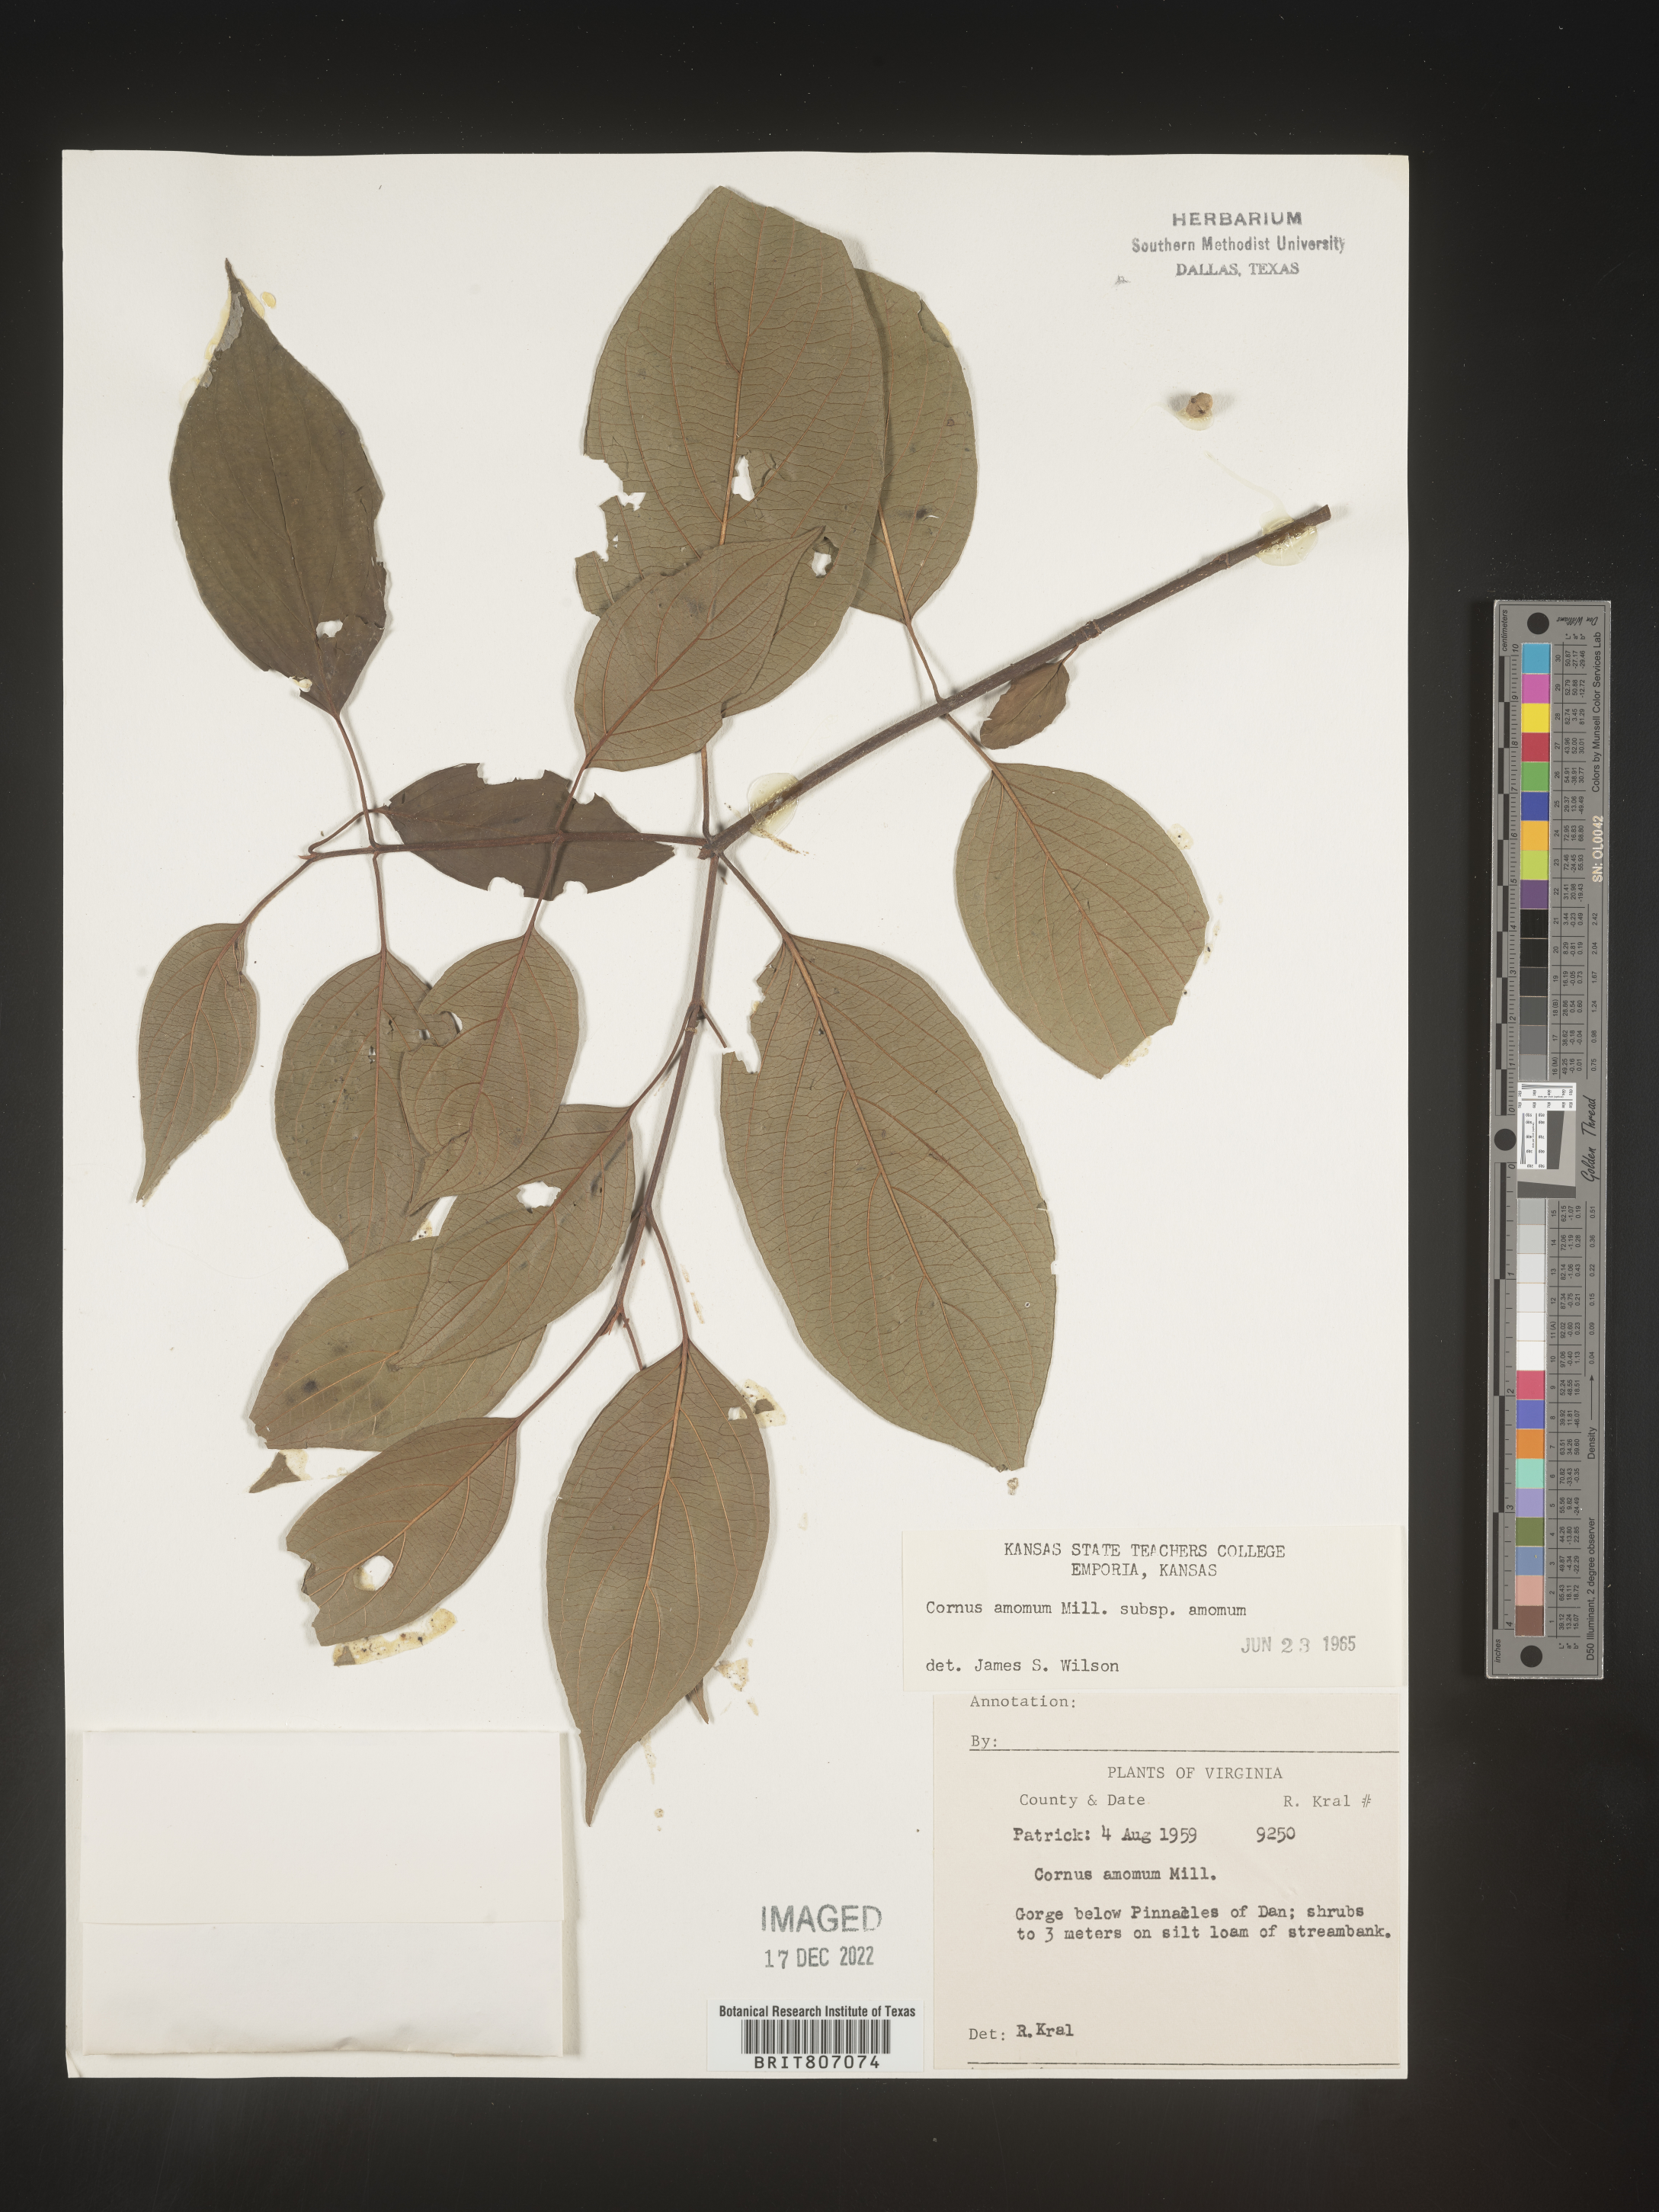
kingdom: Plantae
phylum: Tracheophyta
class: Magnoliopsida
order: Cornales
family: Cornaceae
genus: Cornus
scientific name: Cornus amomum
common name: Silky dogwood
